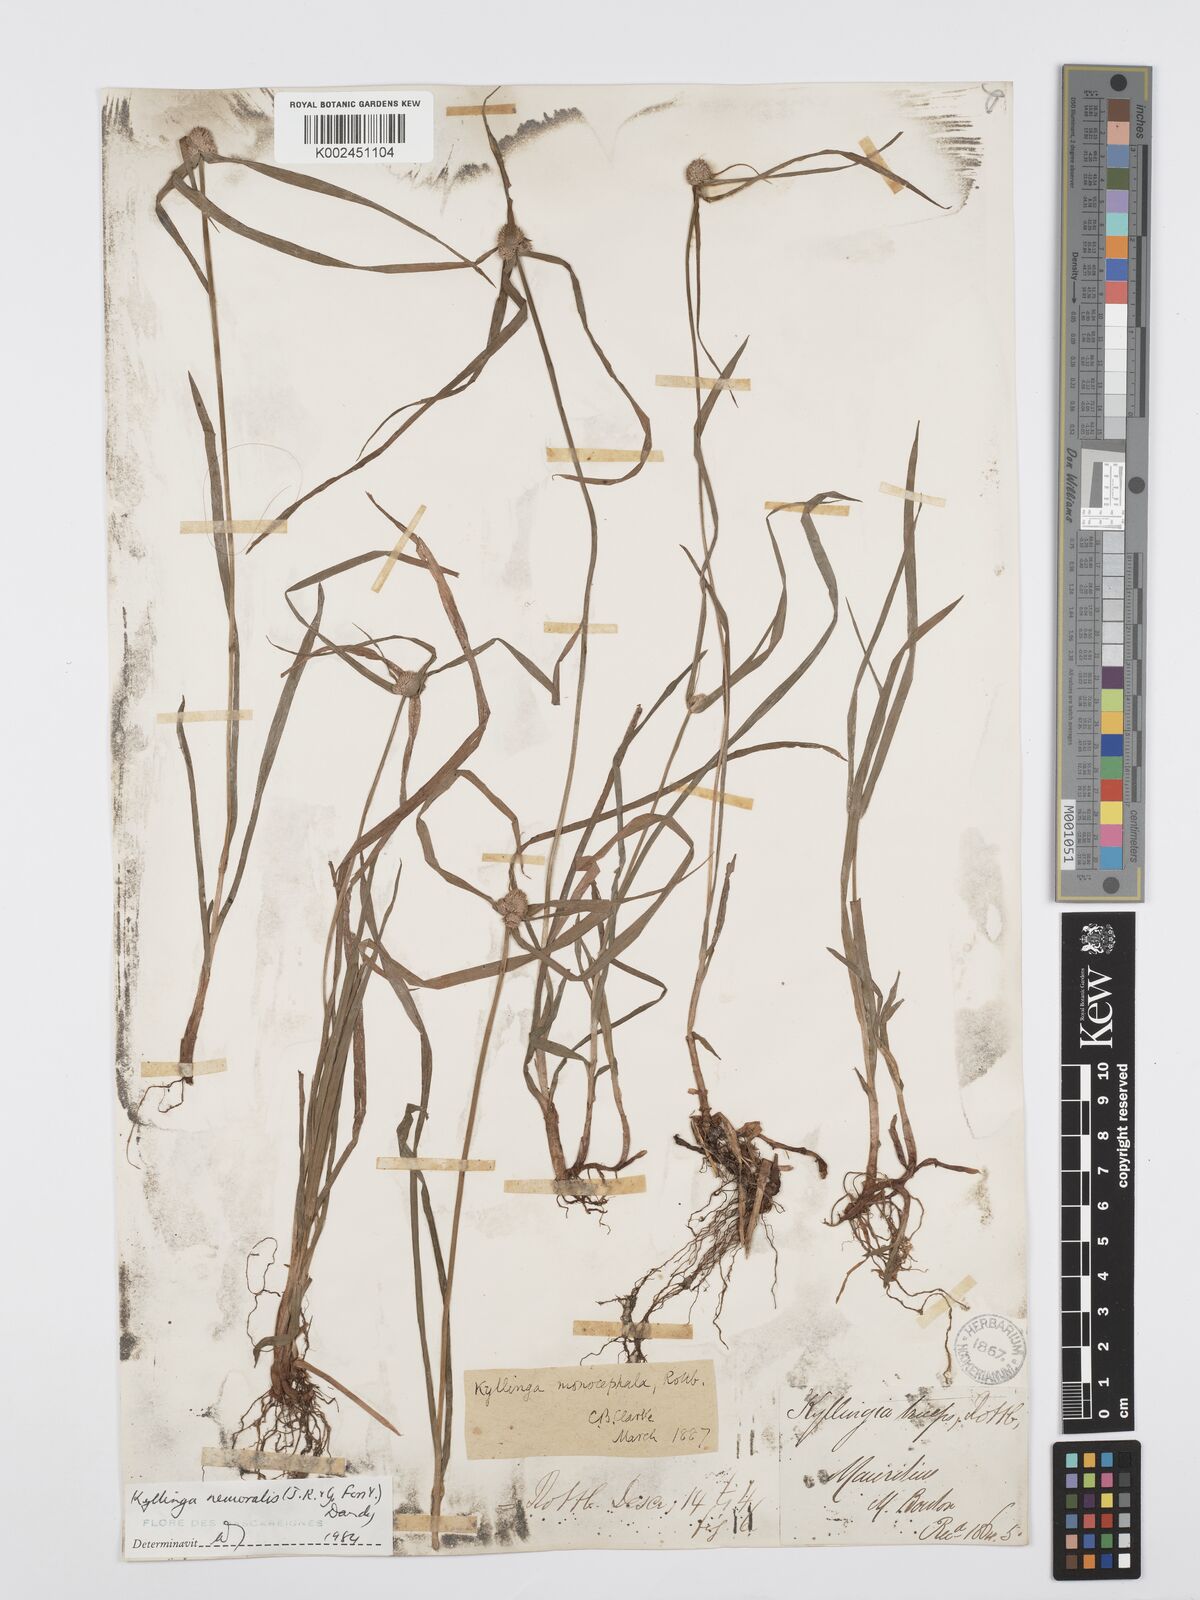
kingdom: Plantae
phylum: Tracheophyta
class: Liliopsida
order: Poales
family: Cyperaceae
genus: Cyperus
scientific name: Cyperus nemoralis
